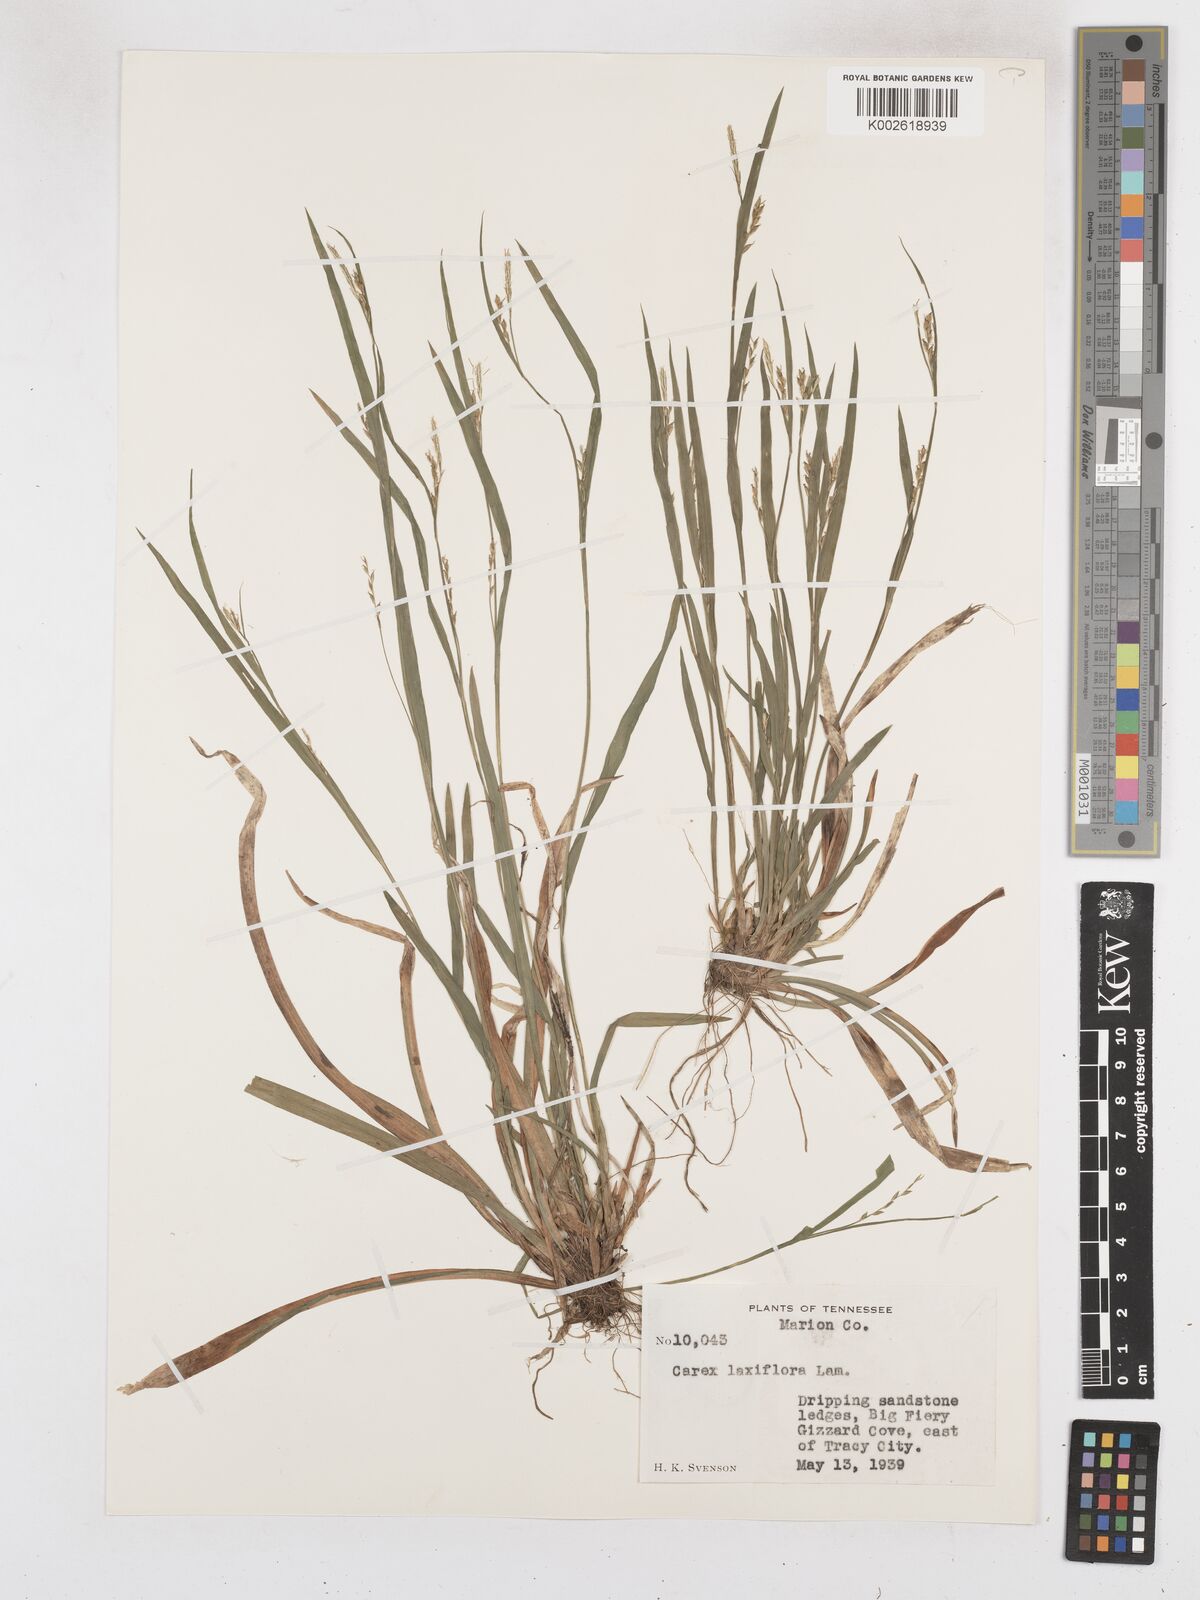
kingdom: Plantae
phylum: Tracheophyta
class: Liliopsida
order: Poales
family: Cyperaceae
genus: Carex
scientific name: Carex laxiflora
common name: Beech wood sedge
